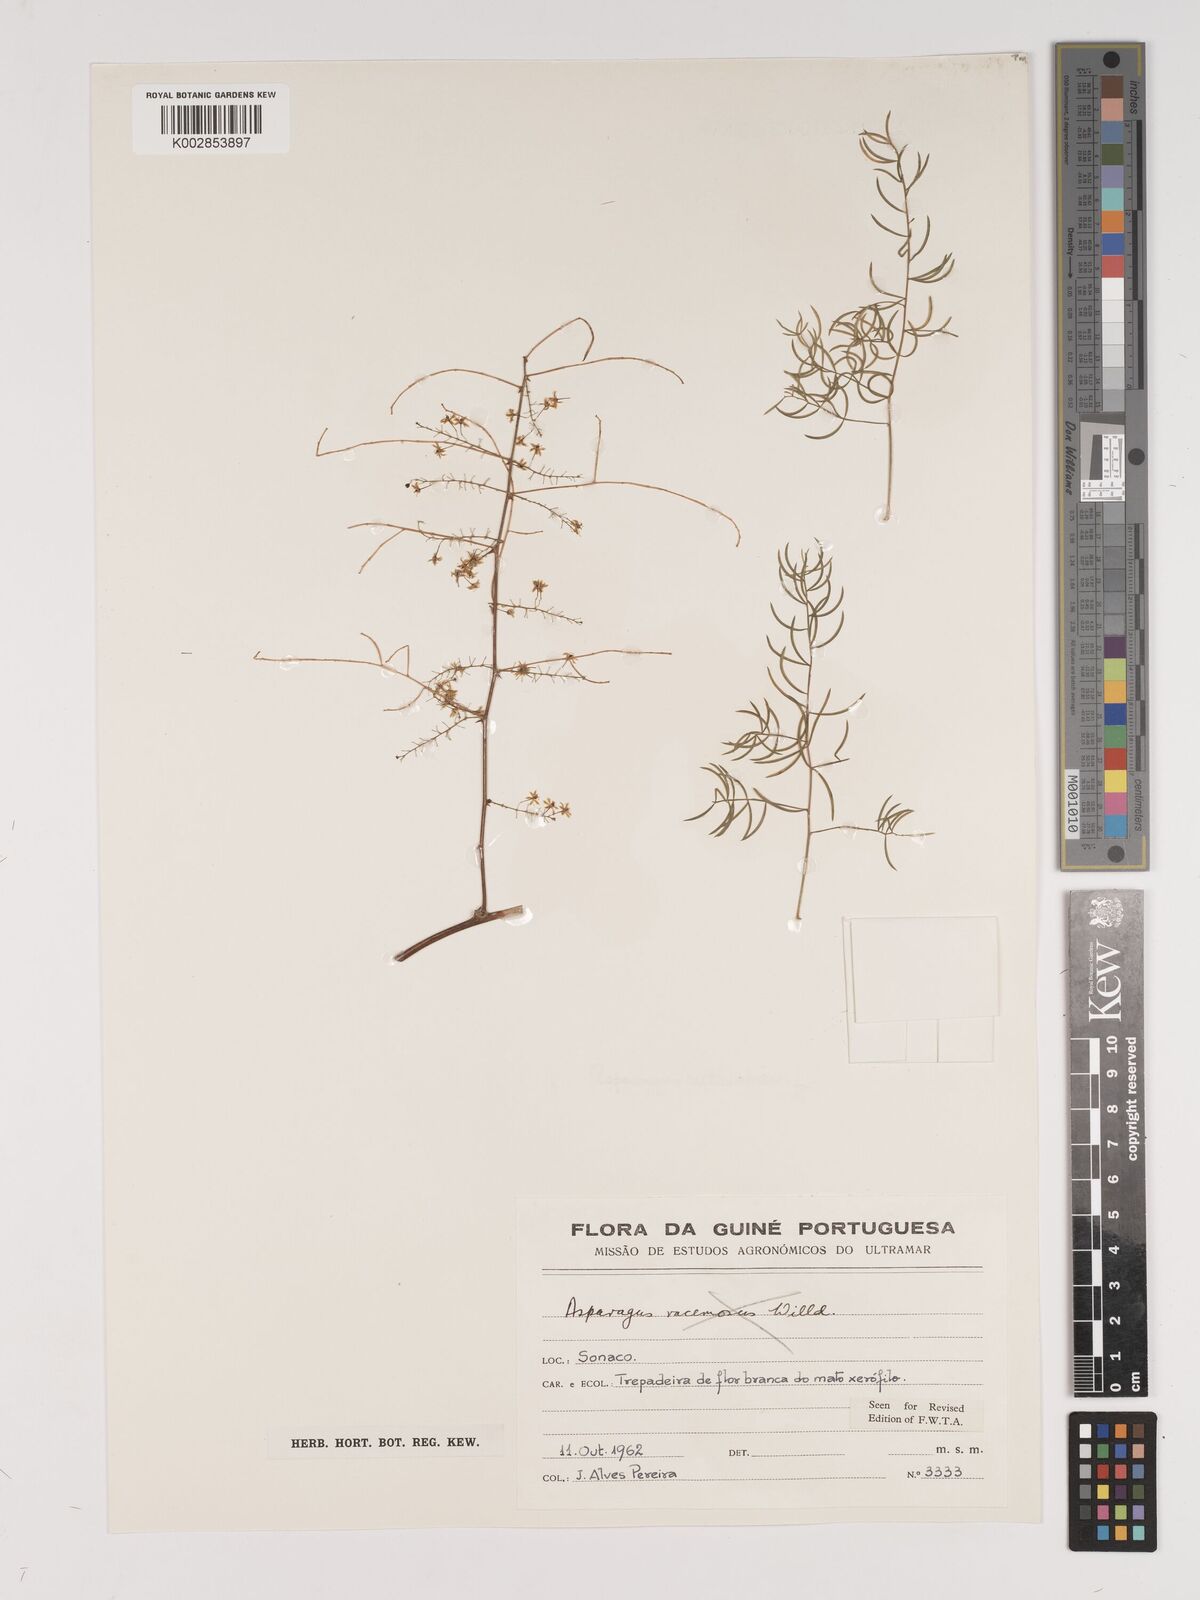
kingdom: Plantae
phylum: Tracheophyta
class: Liliopsida
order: Asparagales
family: Asparagaceae
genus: Asparagus
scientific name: Asparagus racemosus
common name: Asparagus-fern
